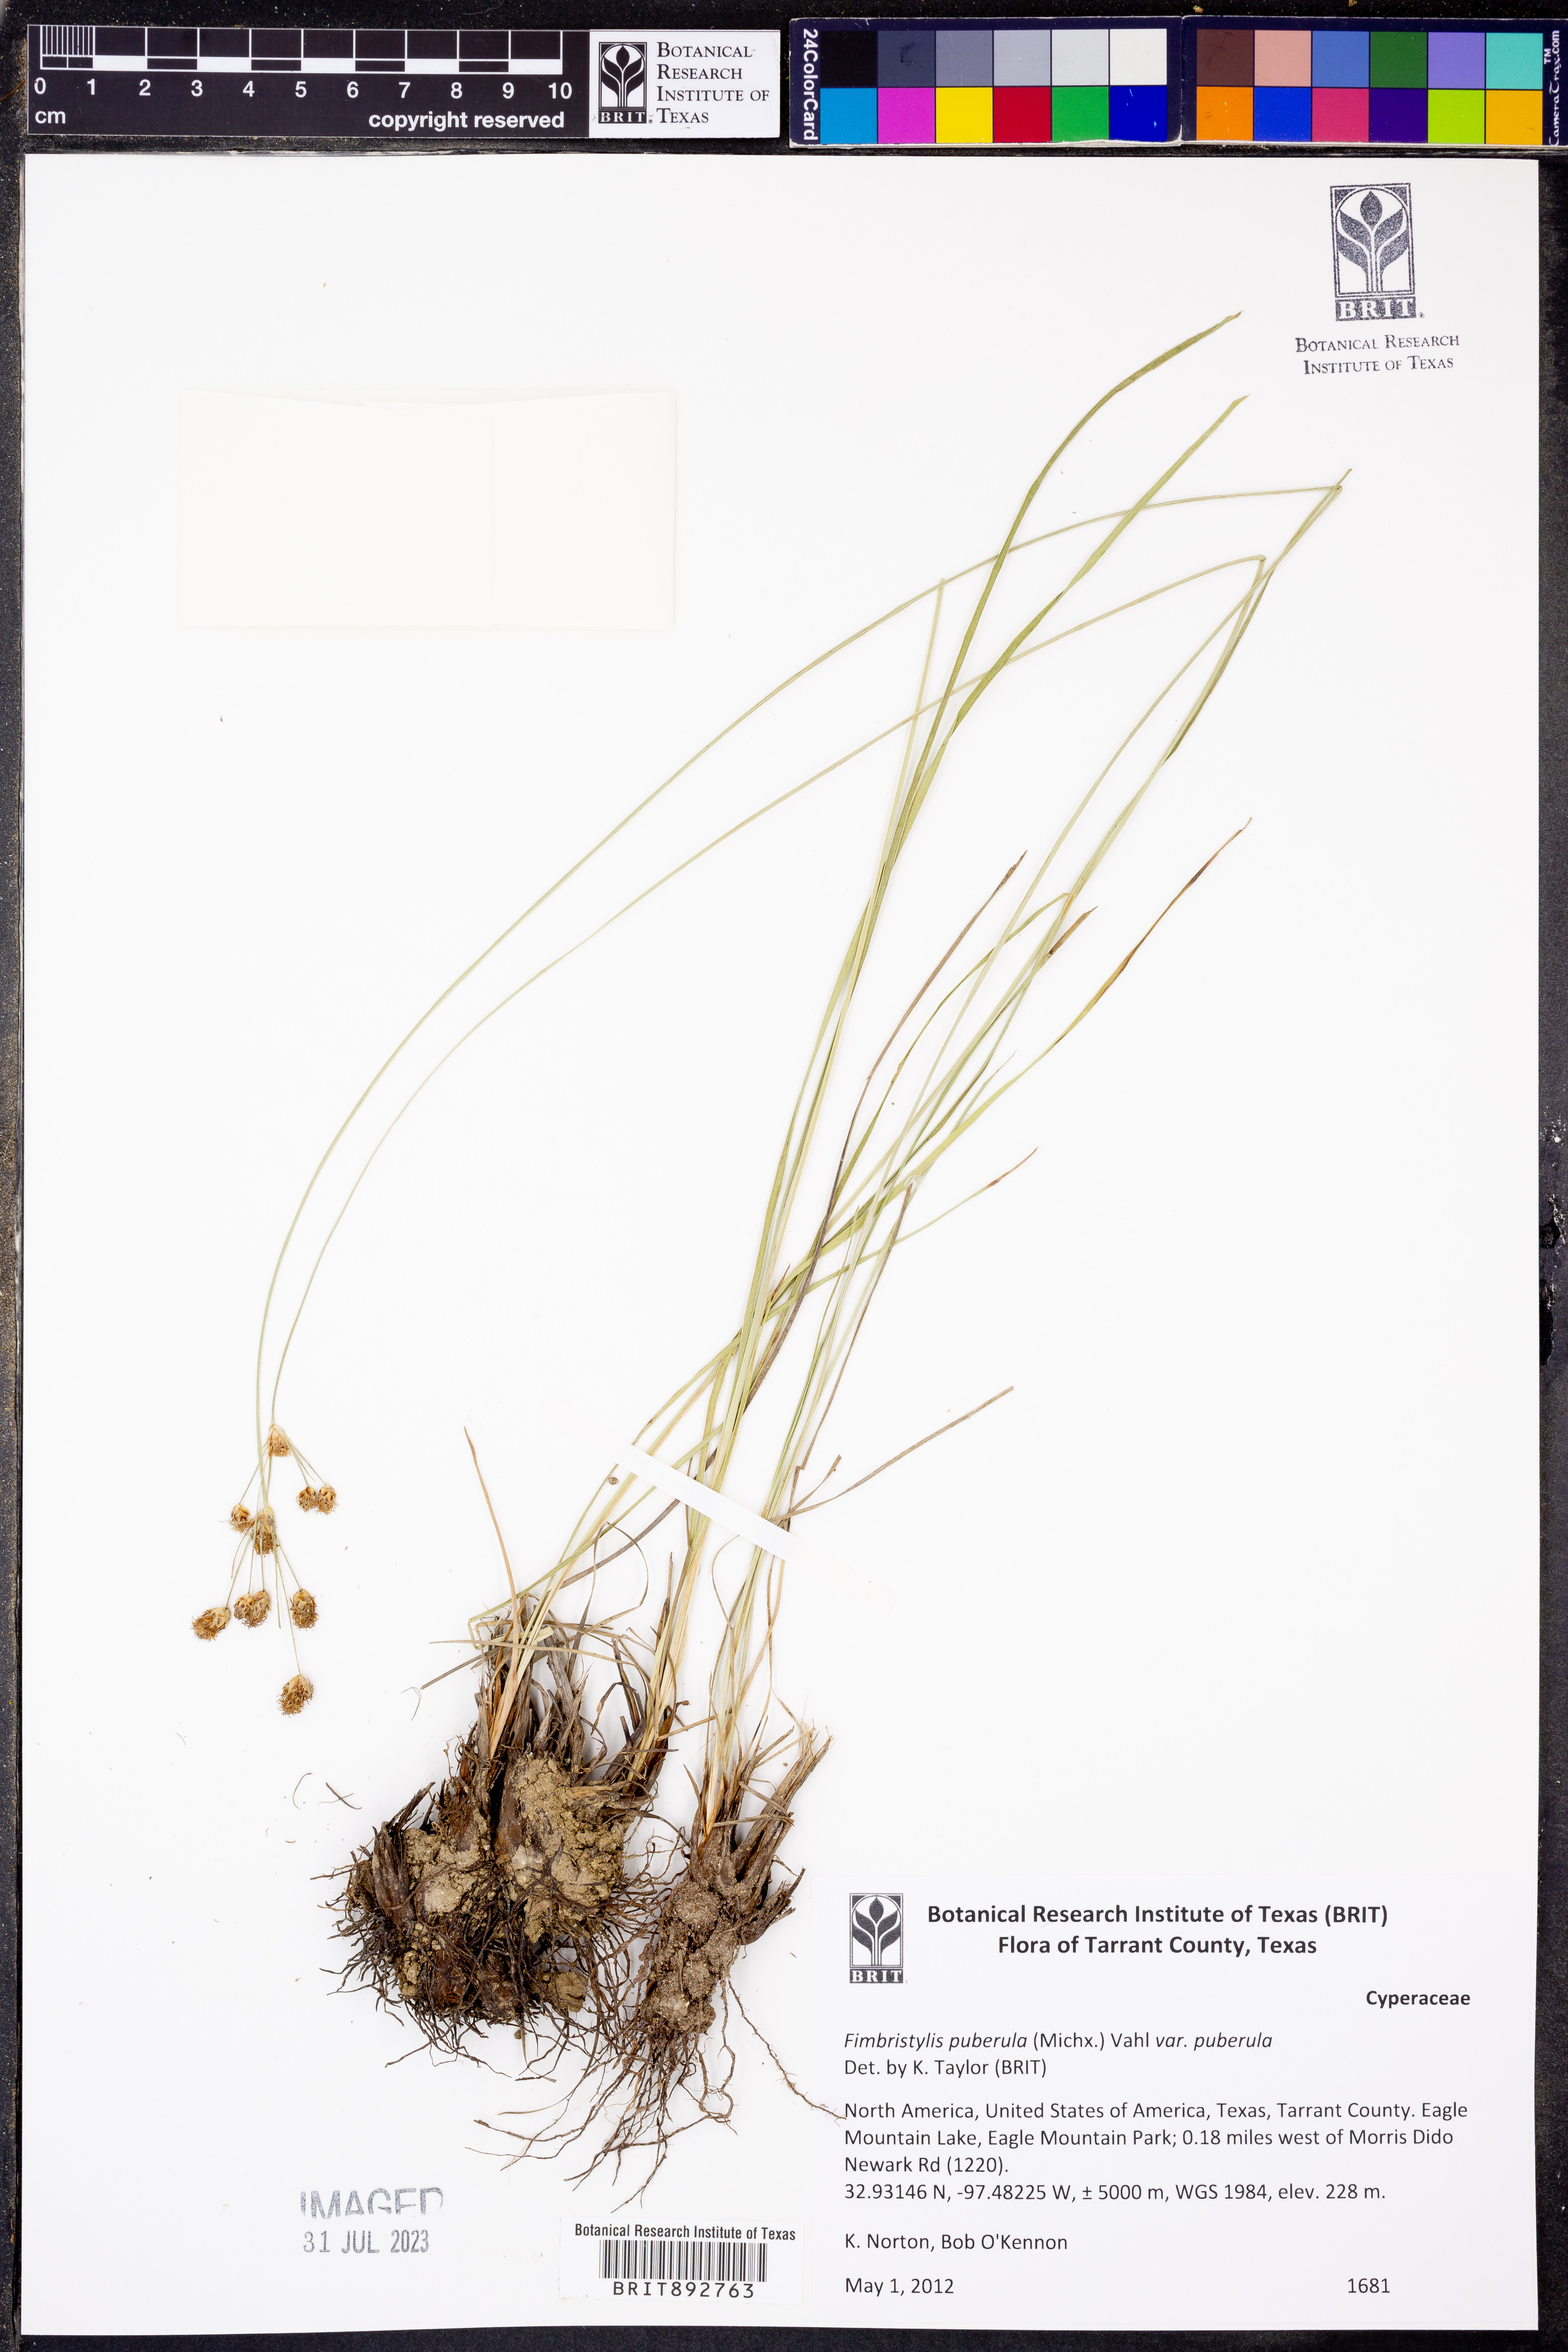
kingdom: Plantae
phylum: Tracheophyta
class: Liliopsida
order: Poales
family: Cyperaceae
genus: Fimbristylis
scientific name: Fimbristylis puberula
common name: Hairy fimbristylis
